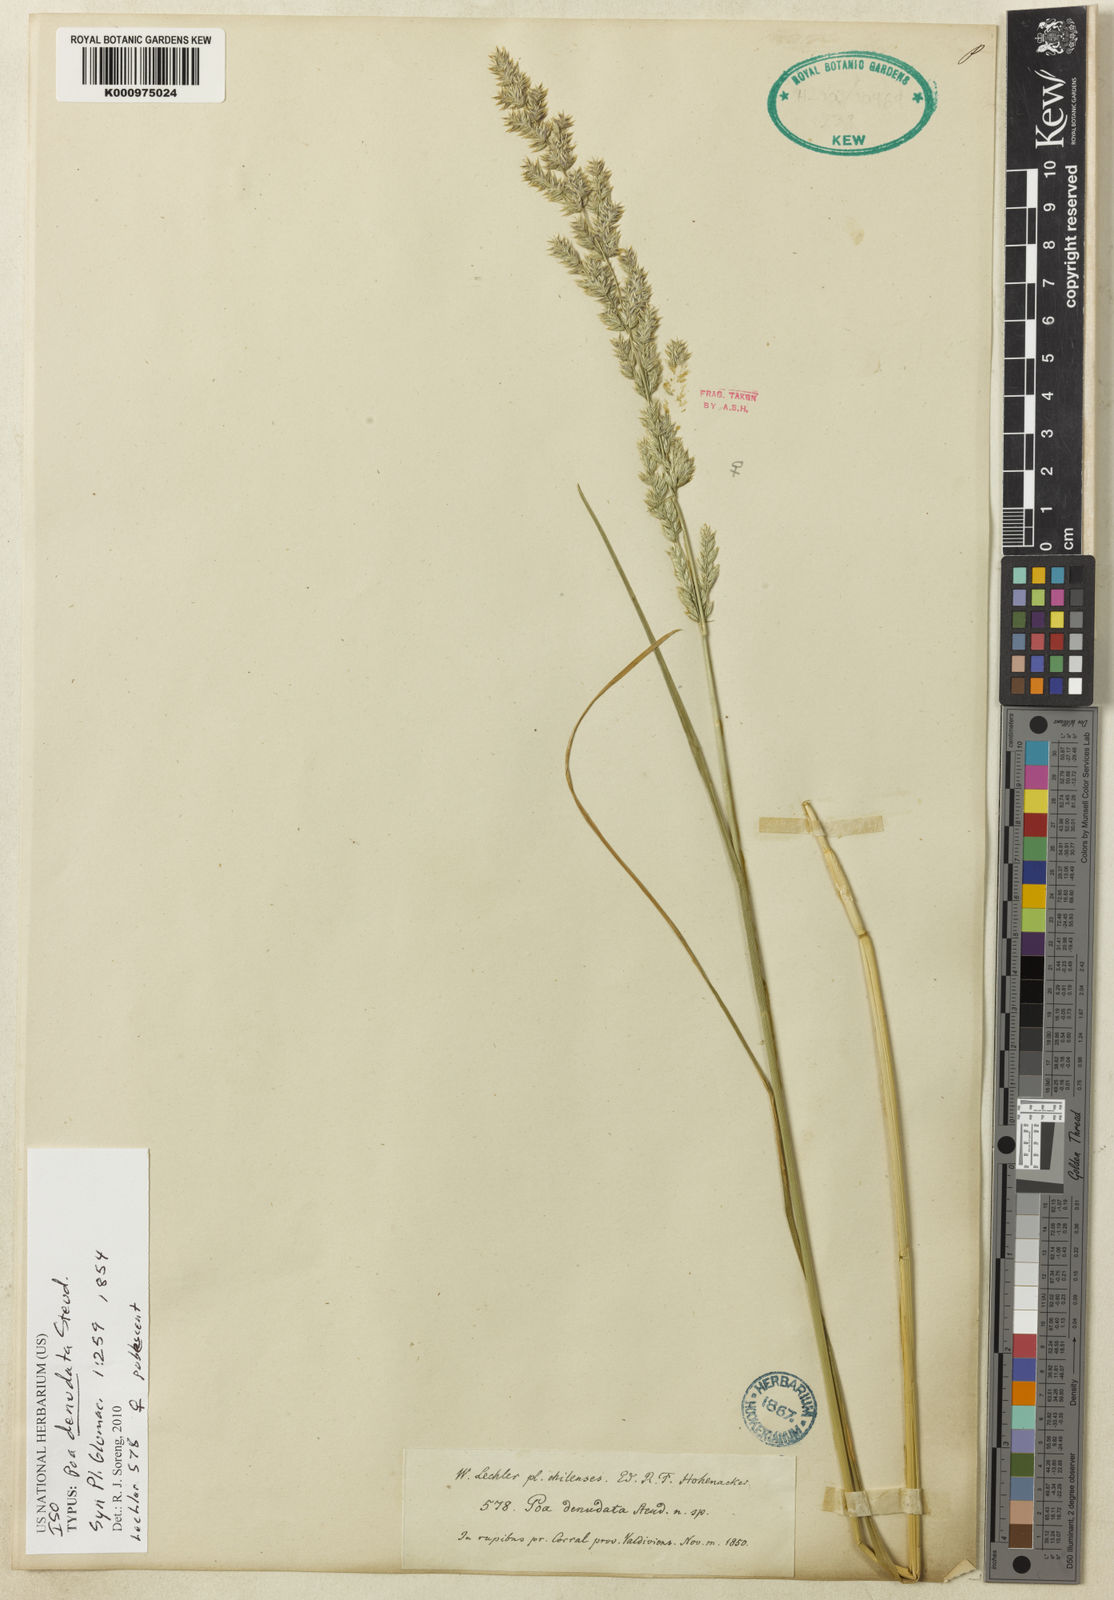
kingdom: Plantae
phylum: Tracheophyta
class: Liliopsida
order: Poales
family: Poaceae
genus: Poa
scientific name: Poa denudata
